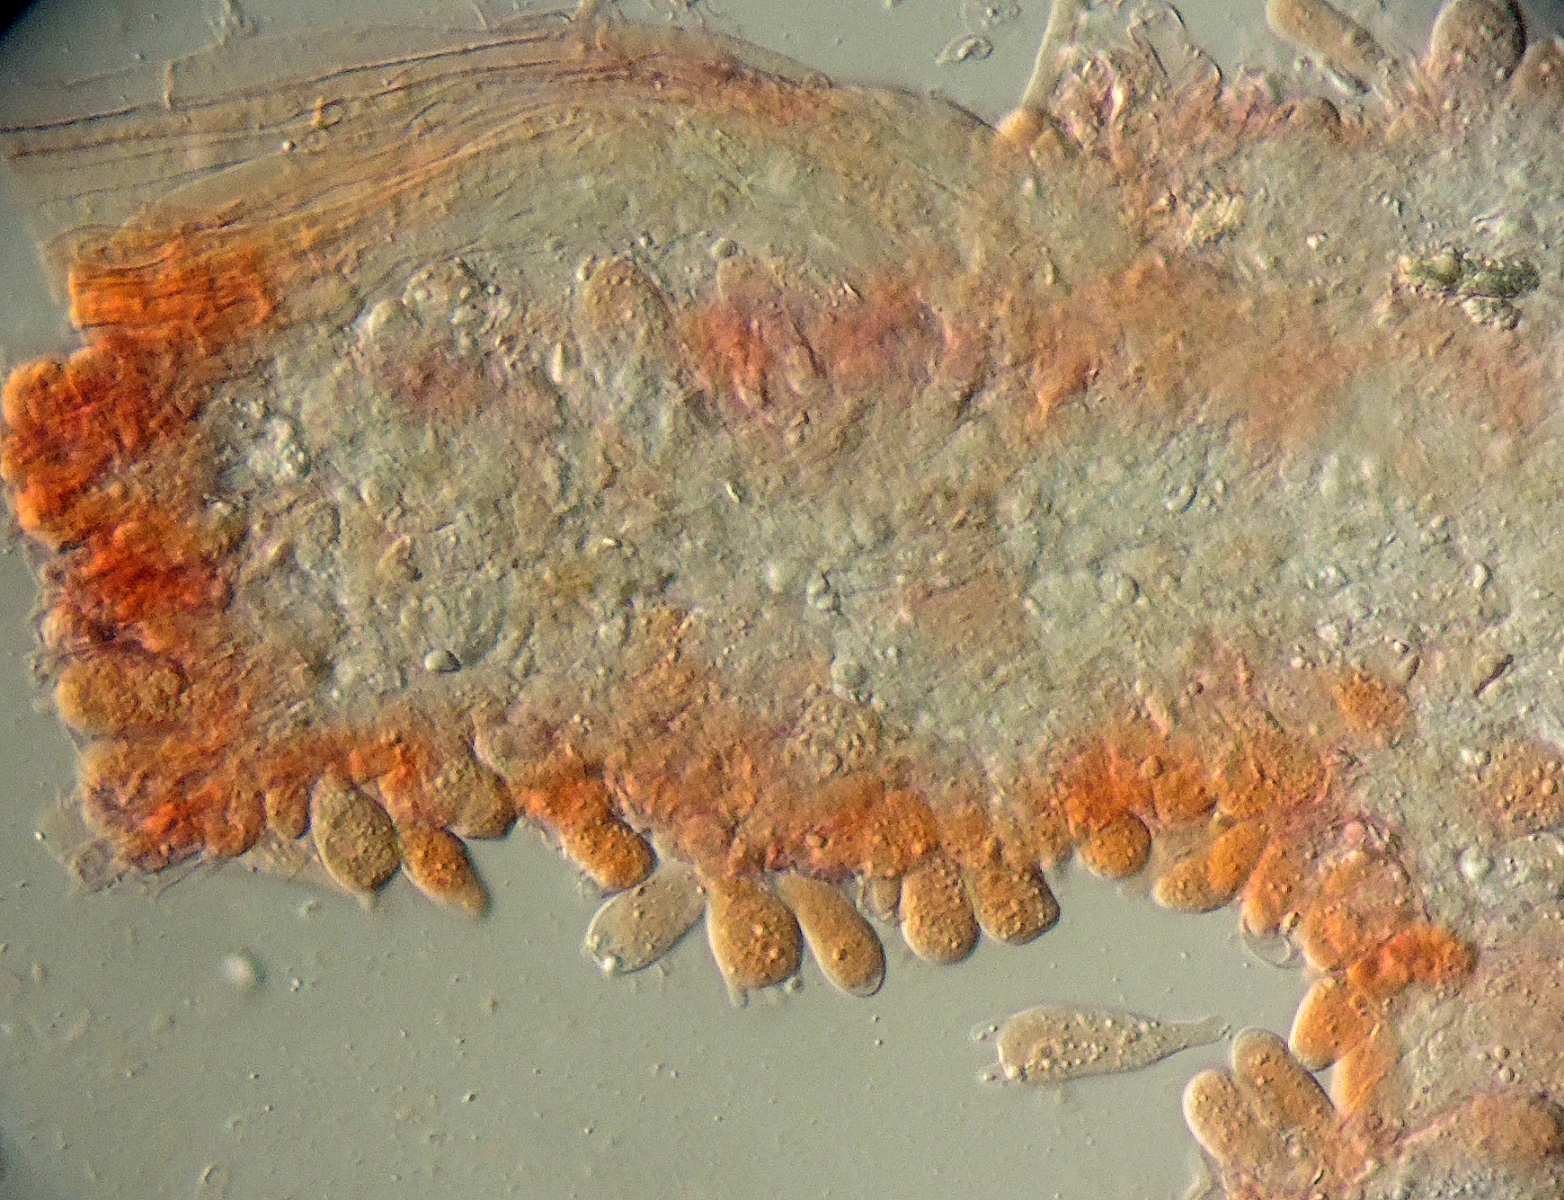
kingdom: Fungi
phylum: Basidiomycota
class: Agaricomycetes
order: Agaricales
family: Typhulaceae
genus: Macrotyphula
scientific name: Macrotyphula
